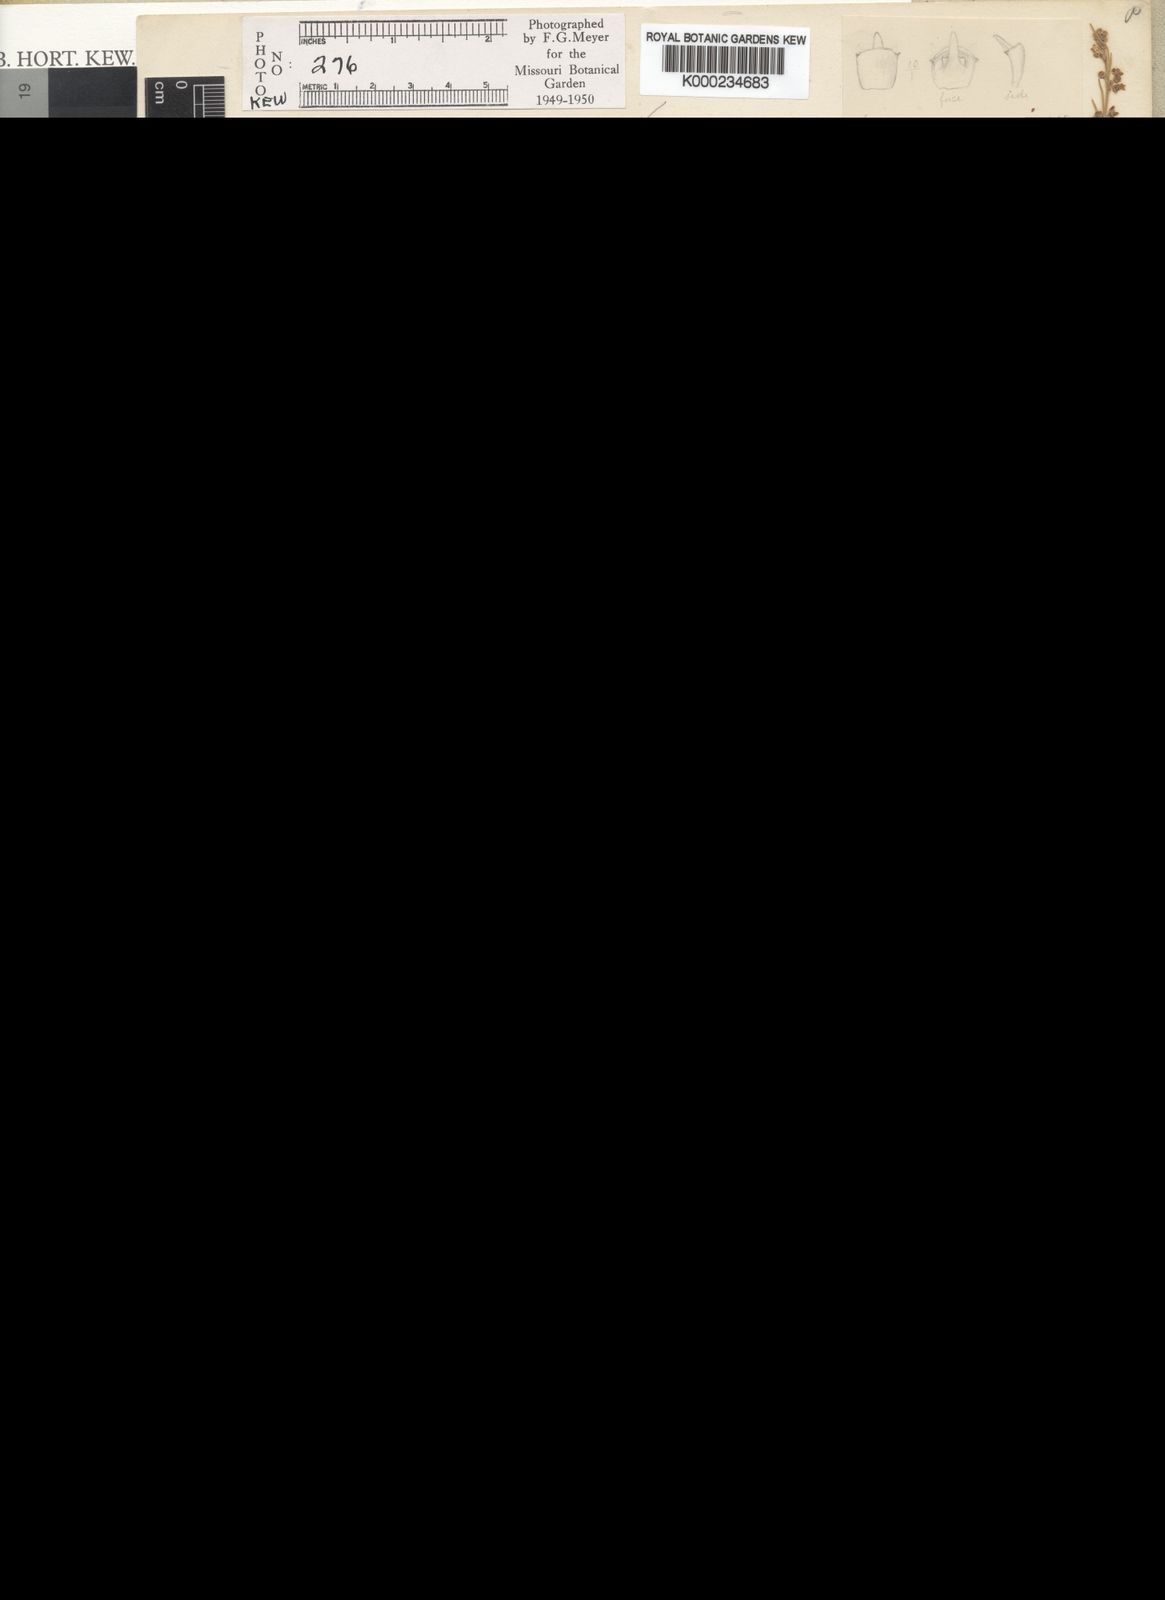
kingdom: Plantae
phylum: Tracheophyta
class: Magnoliopsida
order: Gentianales
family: Apocynaceae
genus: Aspidoglossum
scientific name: Aspidoglossum gracile
